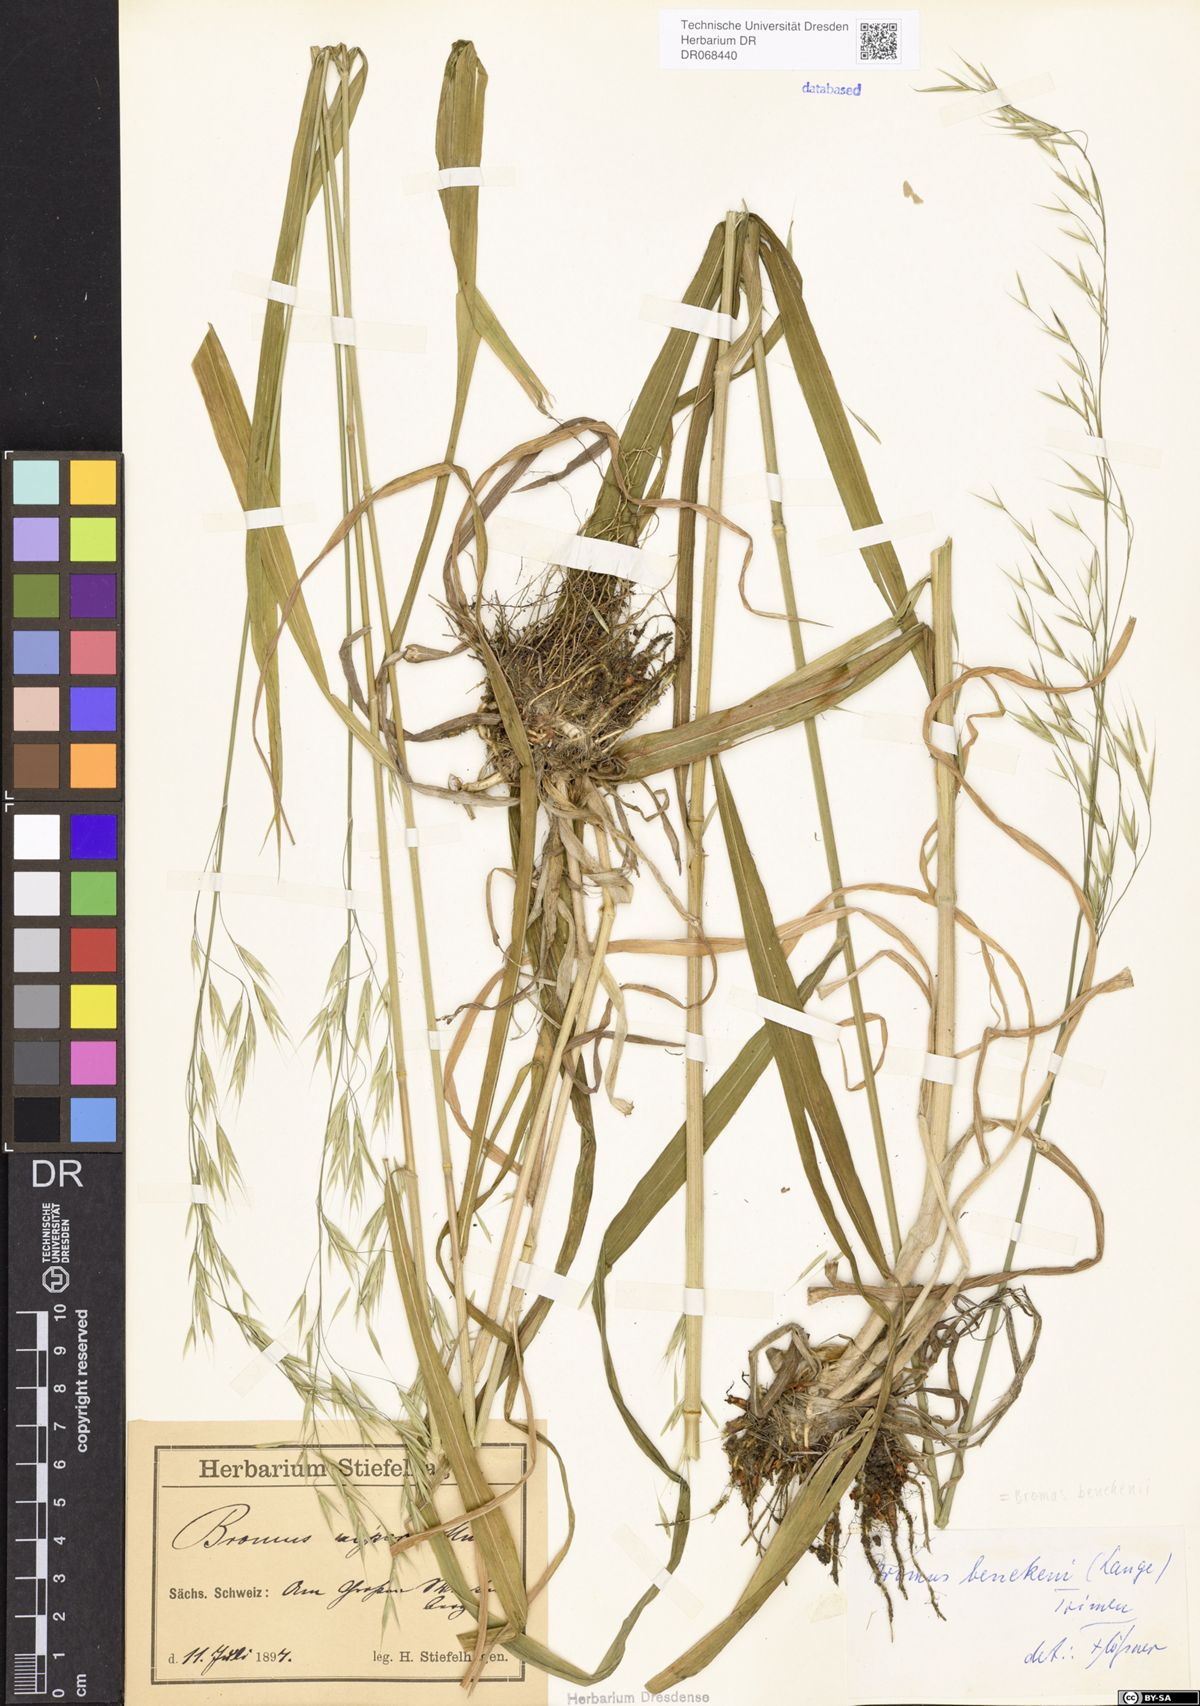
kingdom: Plantae
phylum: Tracheophyta
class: Liliopsida
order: Poales
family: Poaceae
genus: Bromus
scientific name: Bromus benekenii
